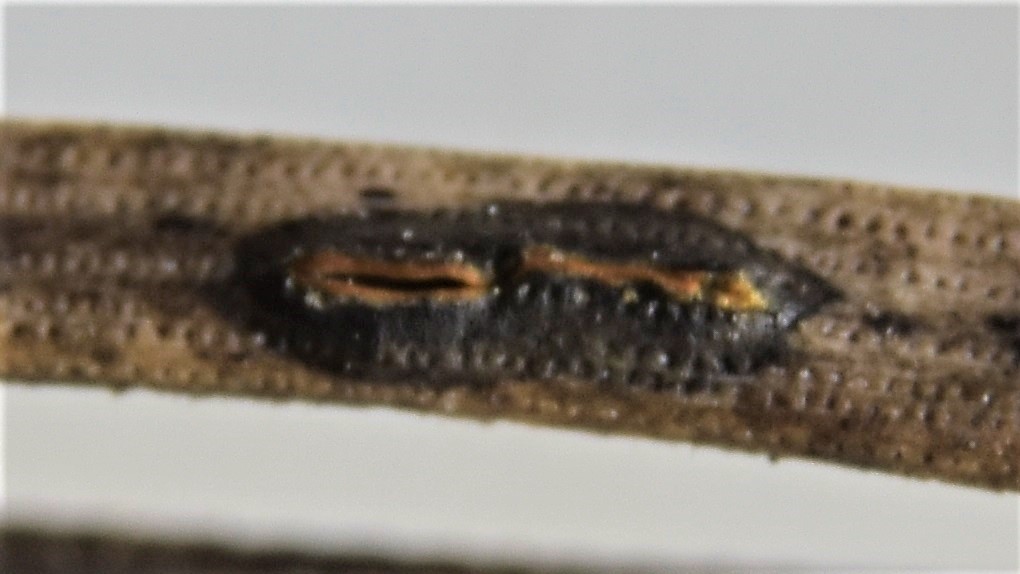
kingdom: Fungi
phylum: Ascomycota
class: Leotiomycetes
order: Rhytismatales
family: Rhytismataceae
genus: Lophodermium
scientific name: Lophodermium pinastri
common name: fyrre-fureplet
